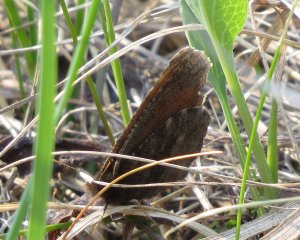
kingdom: Animalia
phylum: Arthropoda
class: Insecta
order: Lepidoptera
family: Nymphalidae
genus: Erebia
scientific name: Erebia discoidalis
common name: Red-disked Alpine
